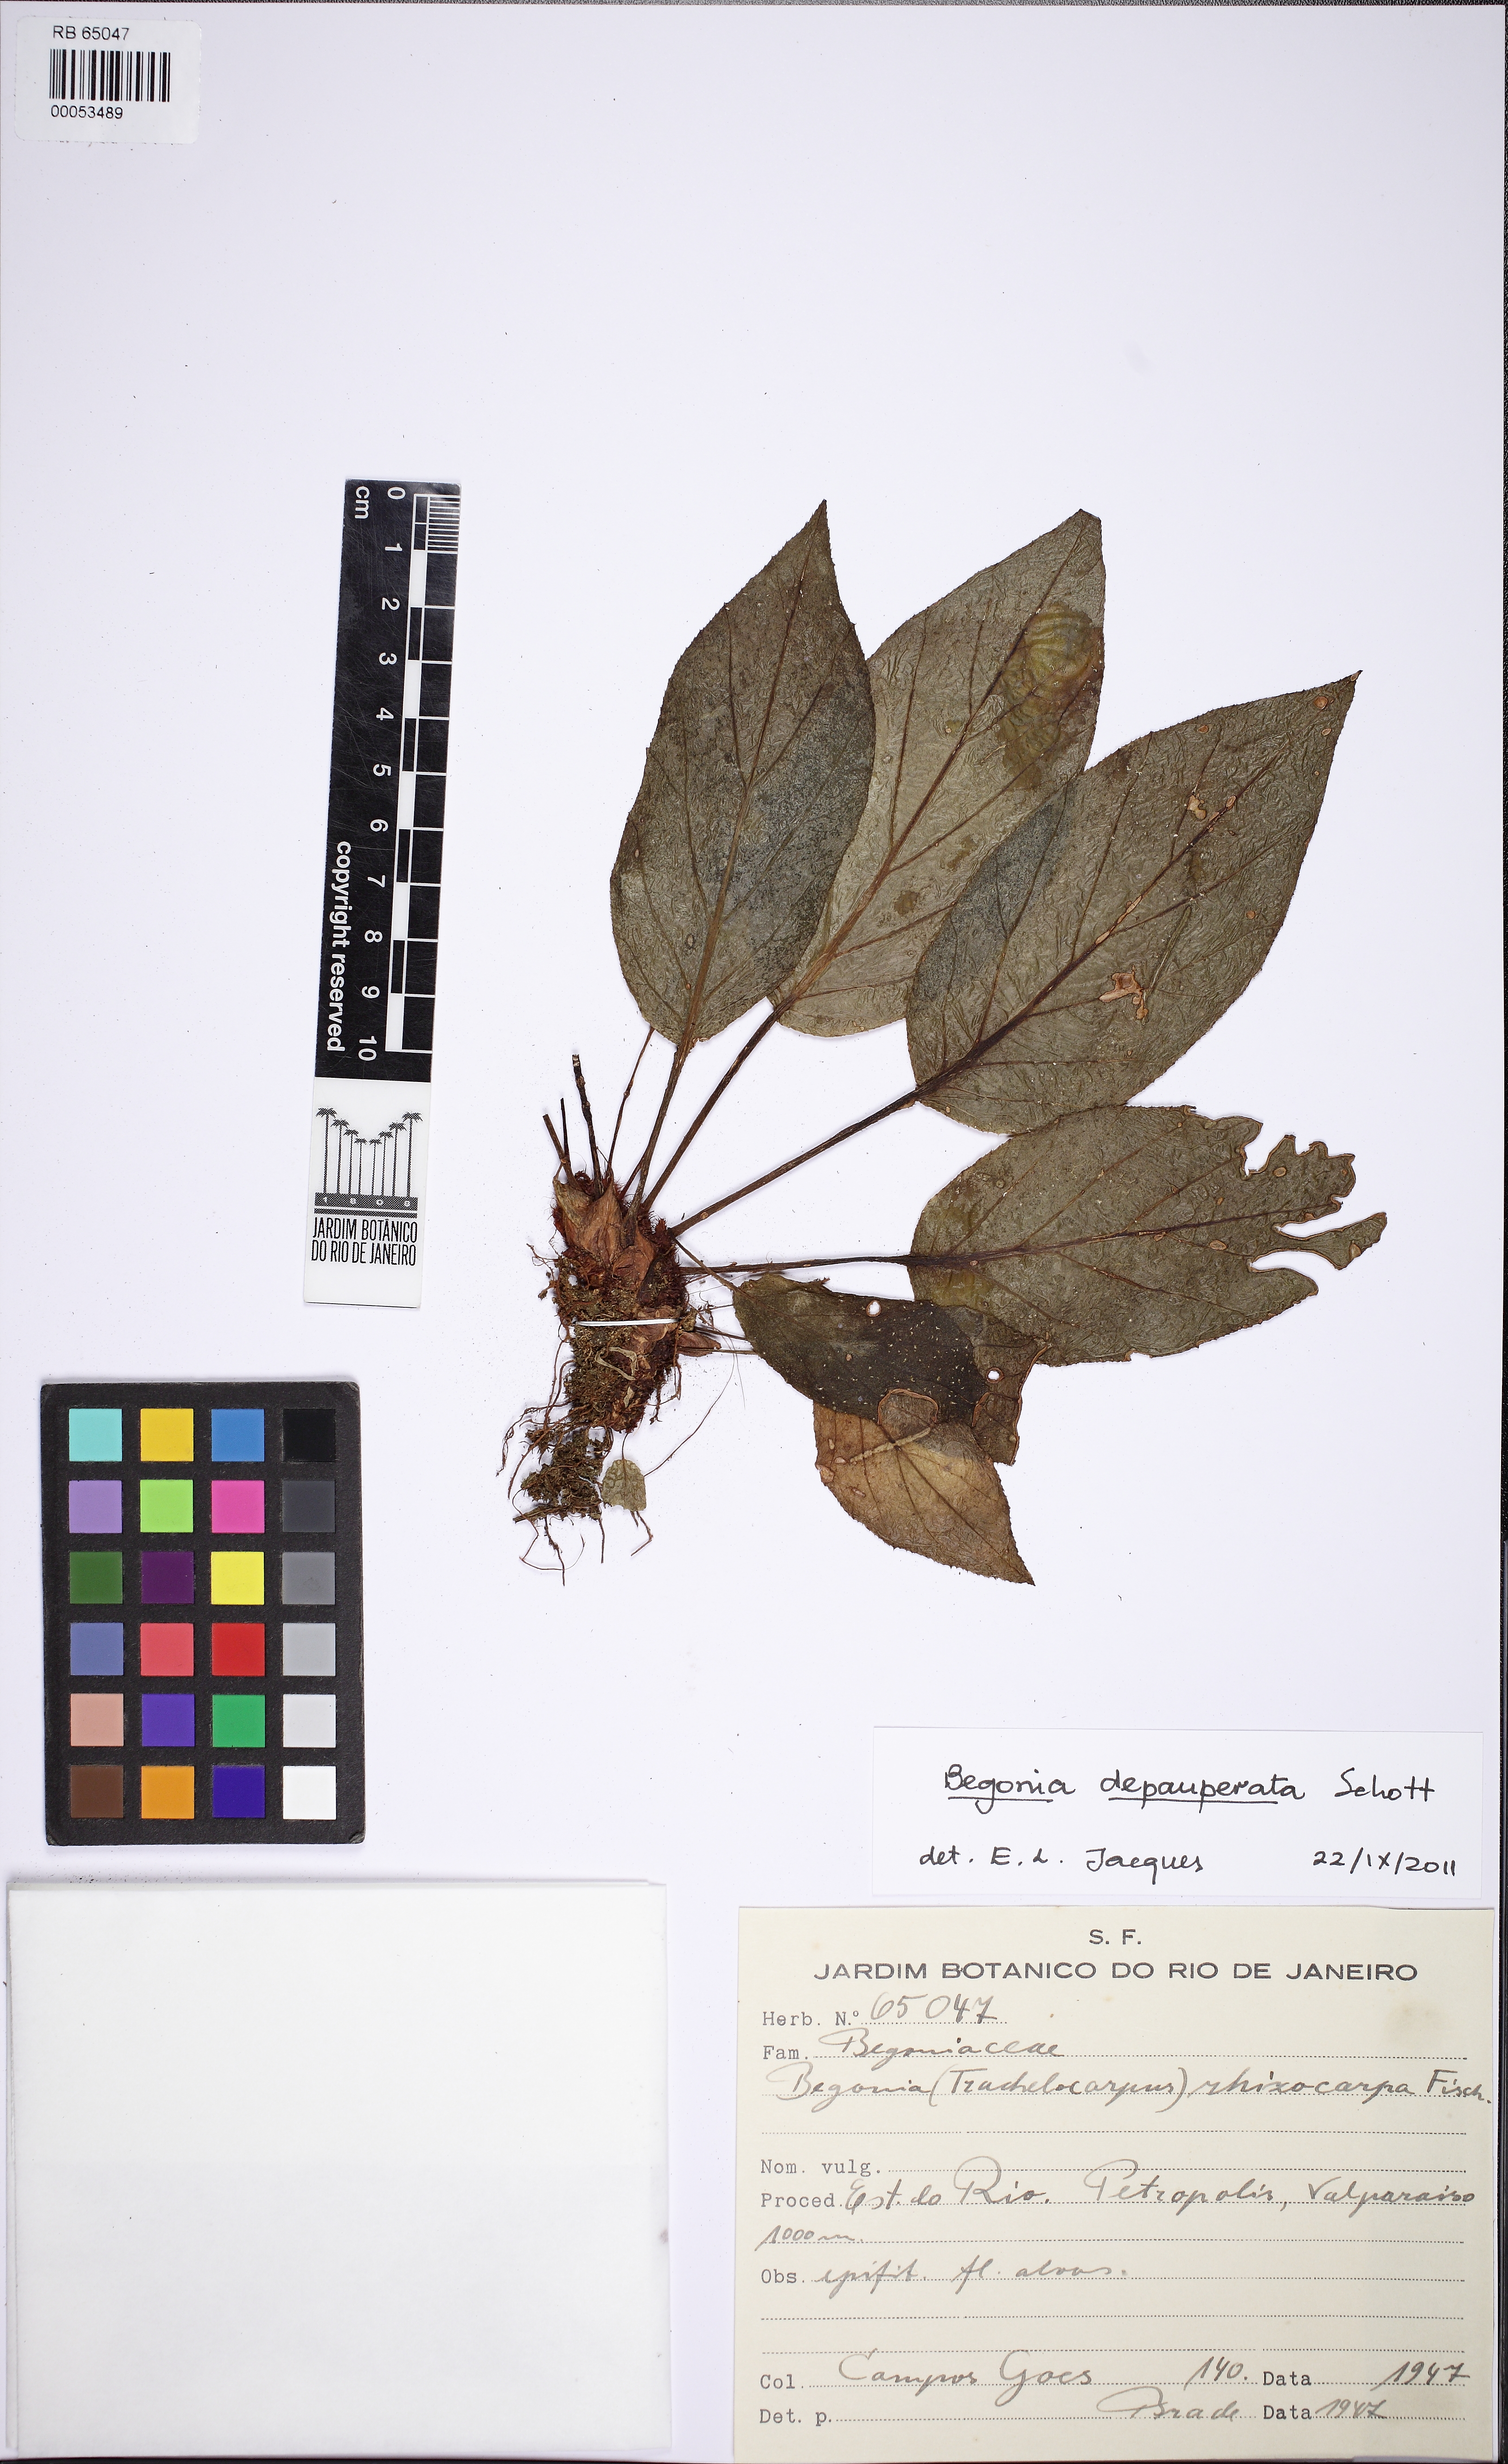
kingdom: Plantae
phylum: Tracheophyta
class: Magnoliopsida
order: Cucurbitales
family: Begoniaceae
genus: Begonia
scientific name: Begonia depauperata
